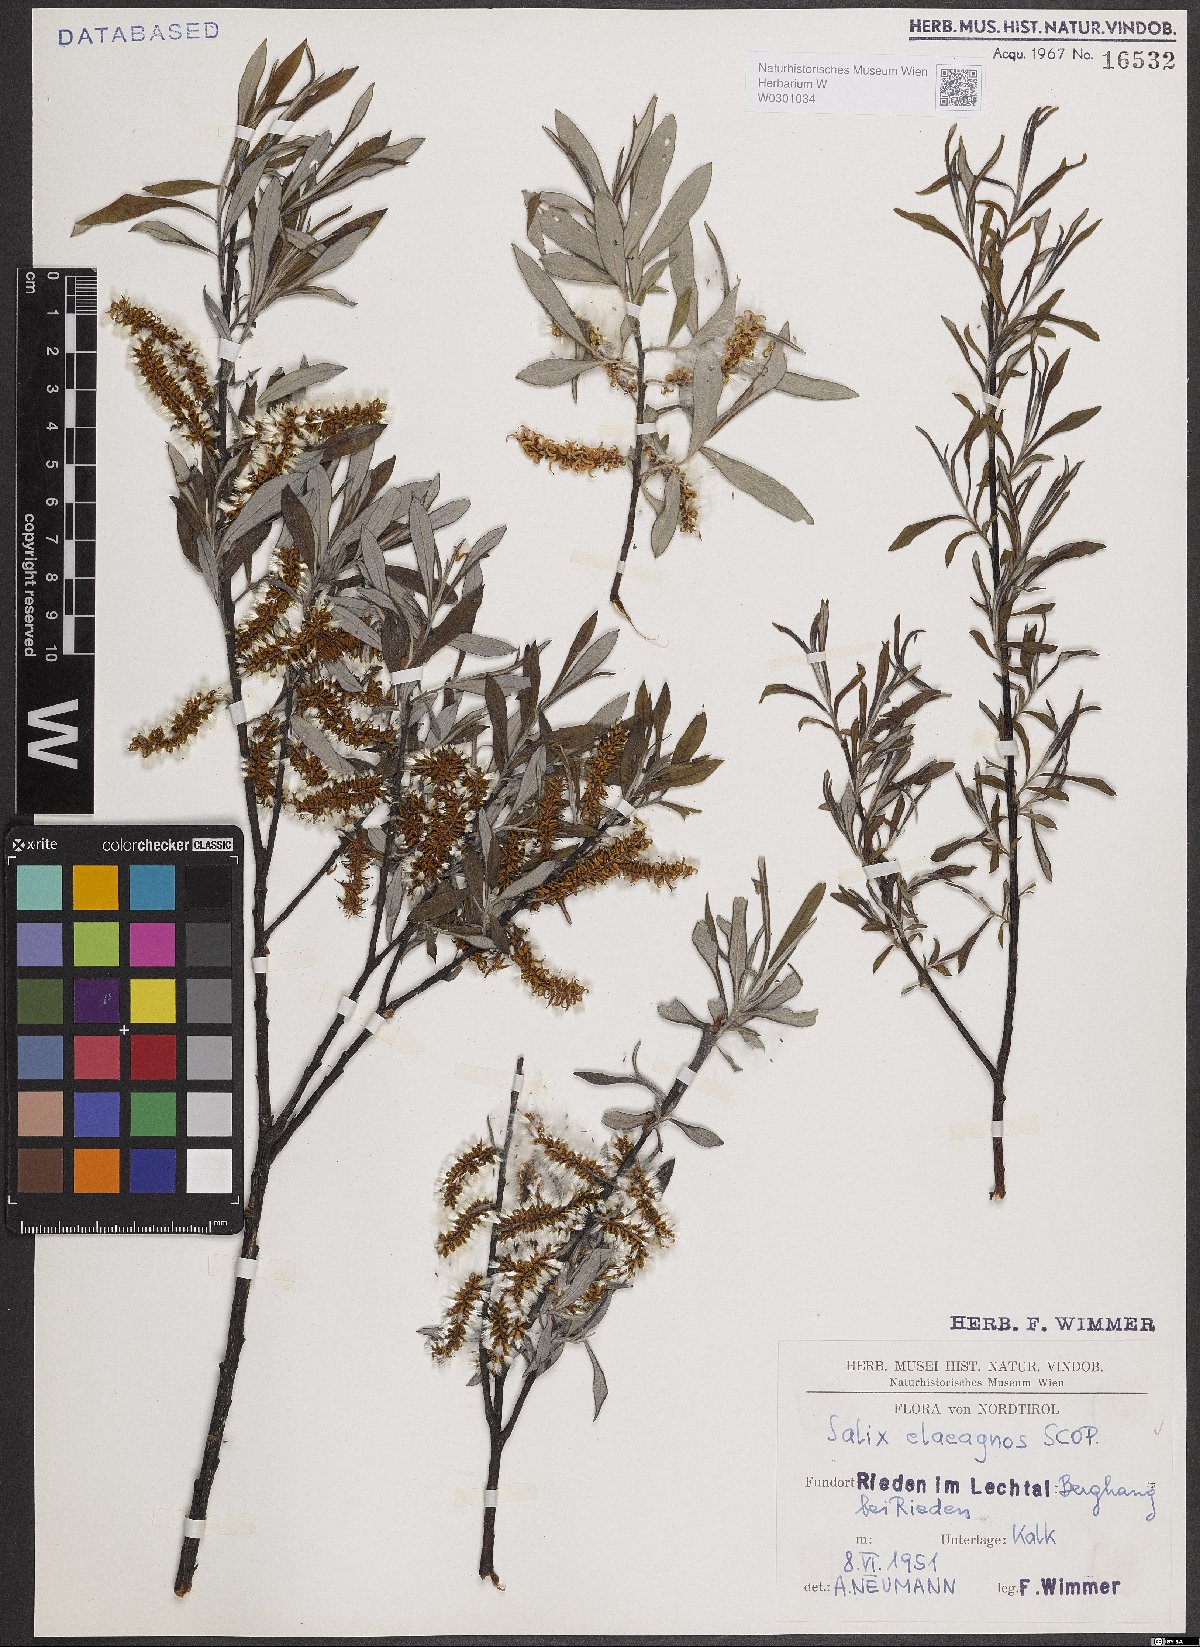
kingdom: Plantae
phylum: Tracheophyta
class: Magnoliopsida
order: Malpighiales
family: Salicaceae
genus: Salix
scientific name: Salix eleagnos
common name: Elaeagnus willow
